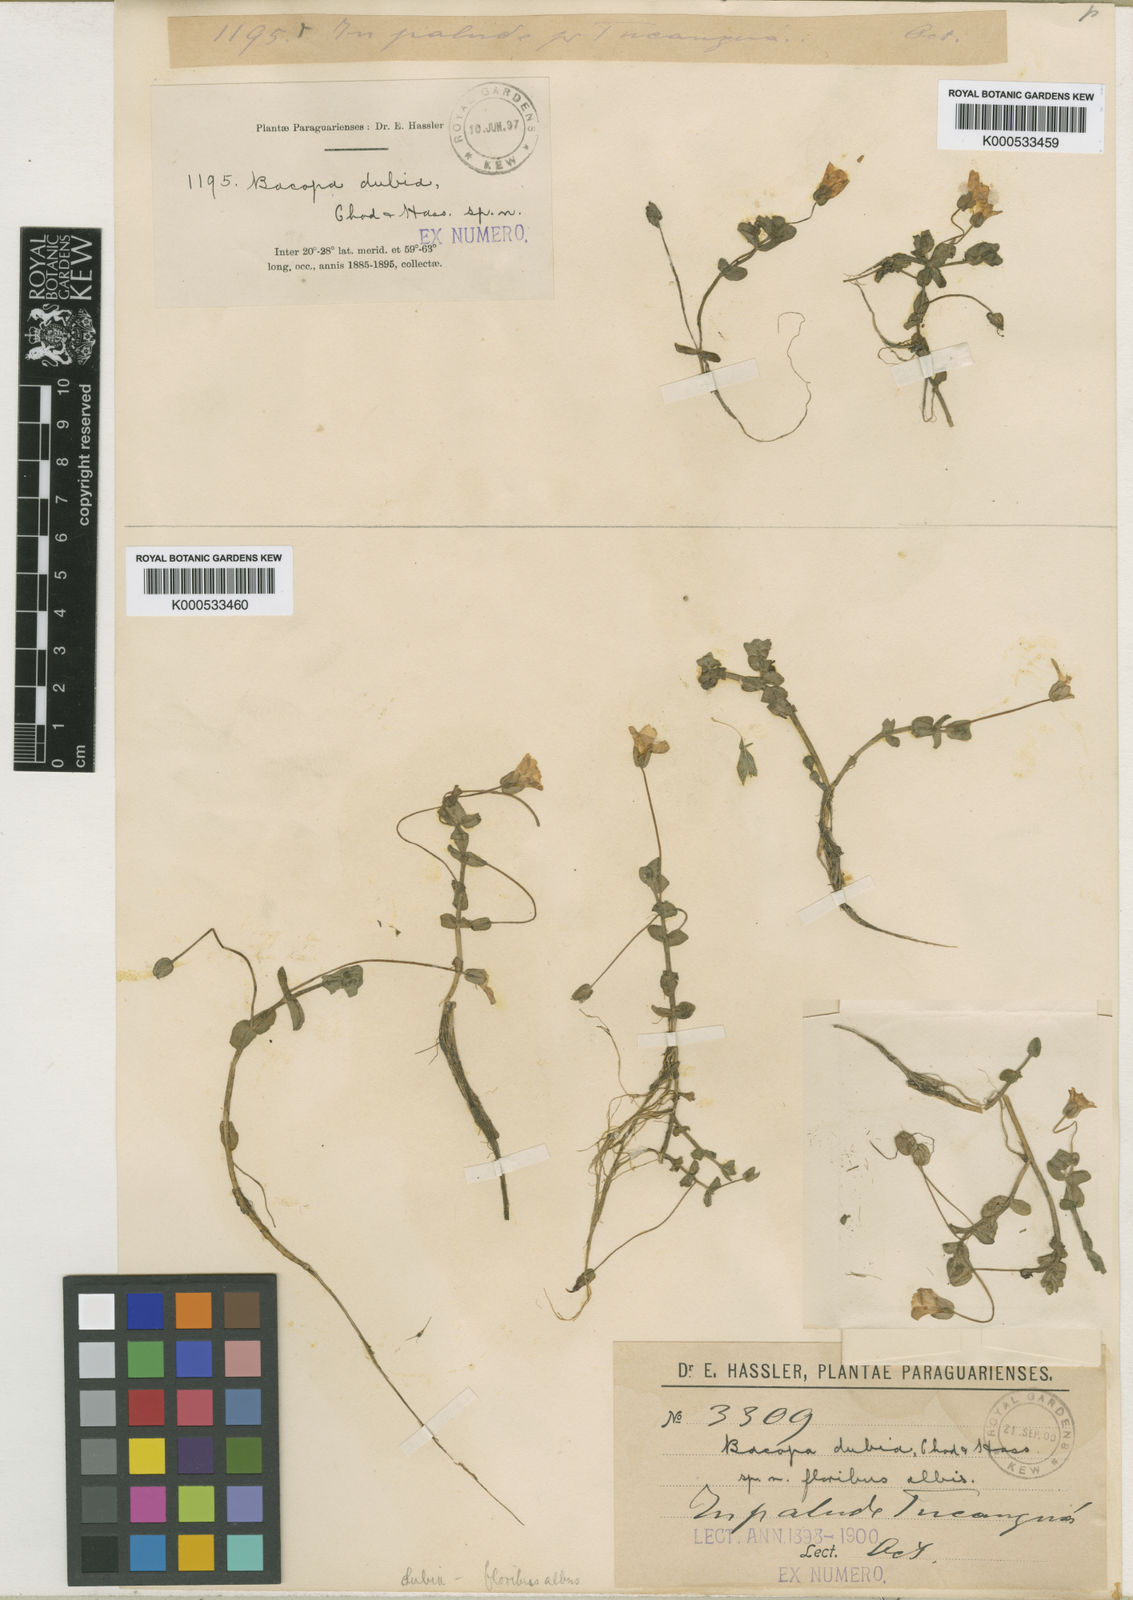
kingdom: Plantae
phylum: Tracheophyta
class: Magnoliopsida
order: Lamiales
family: Plantaginaceae
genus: Bacopa
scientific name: Bacopa dubia
